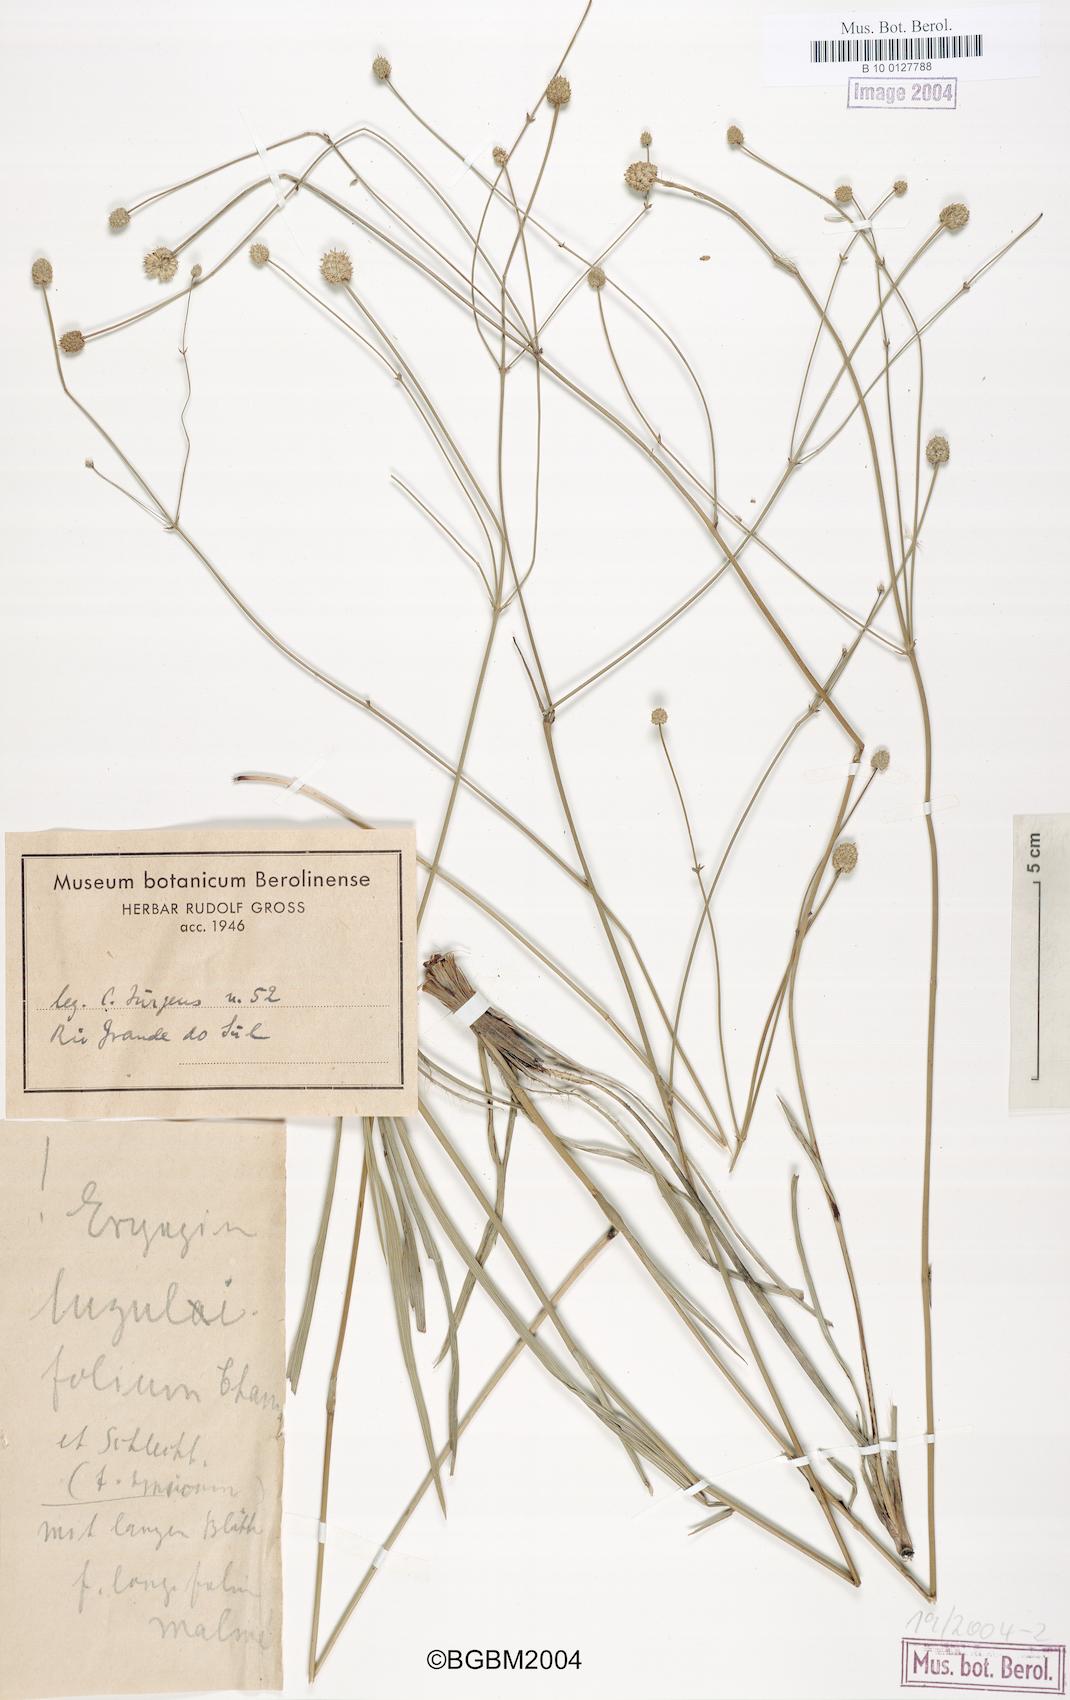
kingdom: Plantae
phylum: Tracheophyta
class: Magnoliopsida
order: Apiales
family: Apiaceae
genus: Eryngium
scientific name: Eryngium luzulifolium
